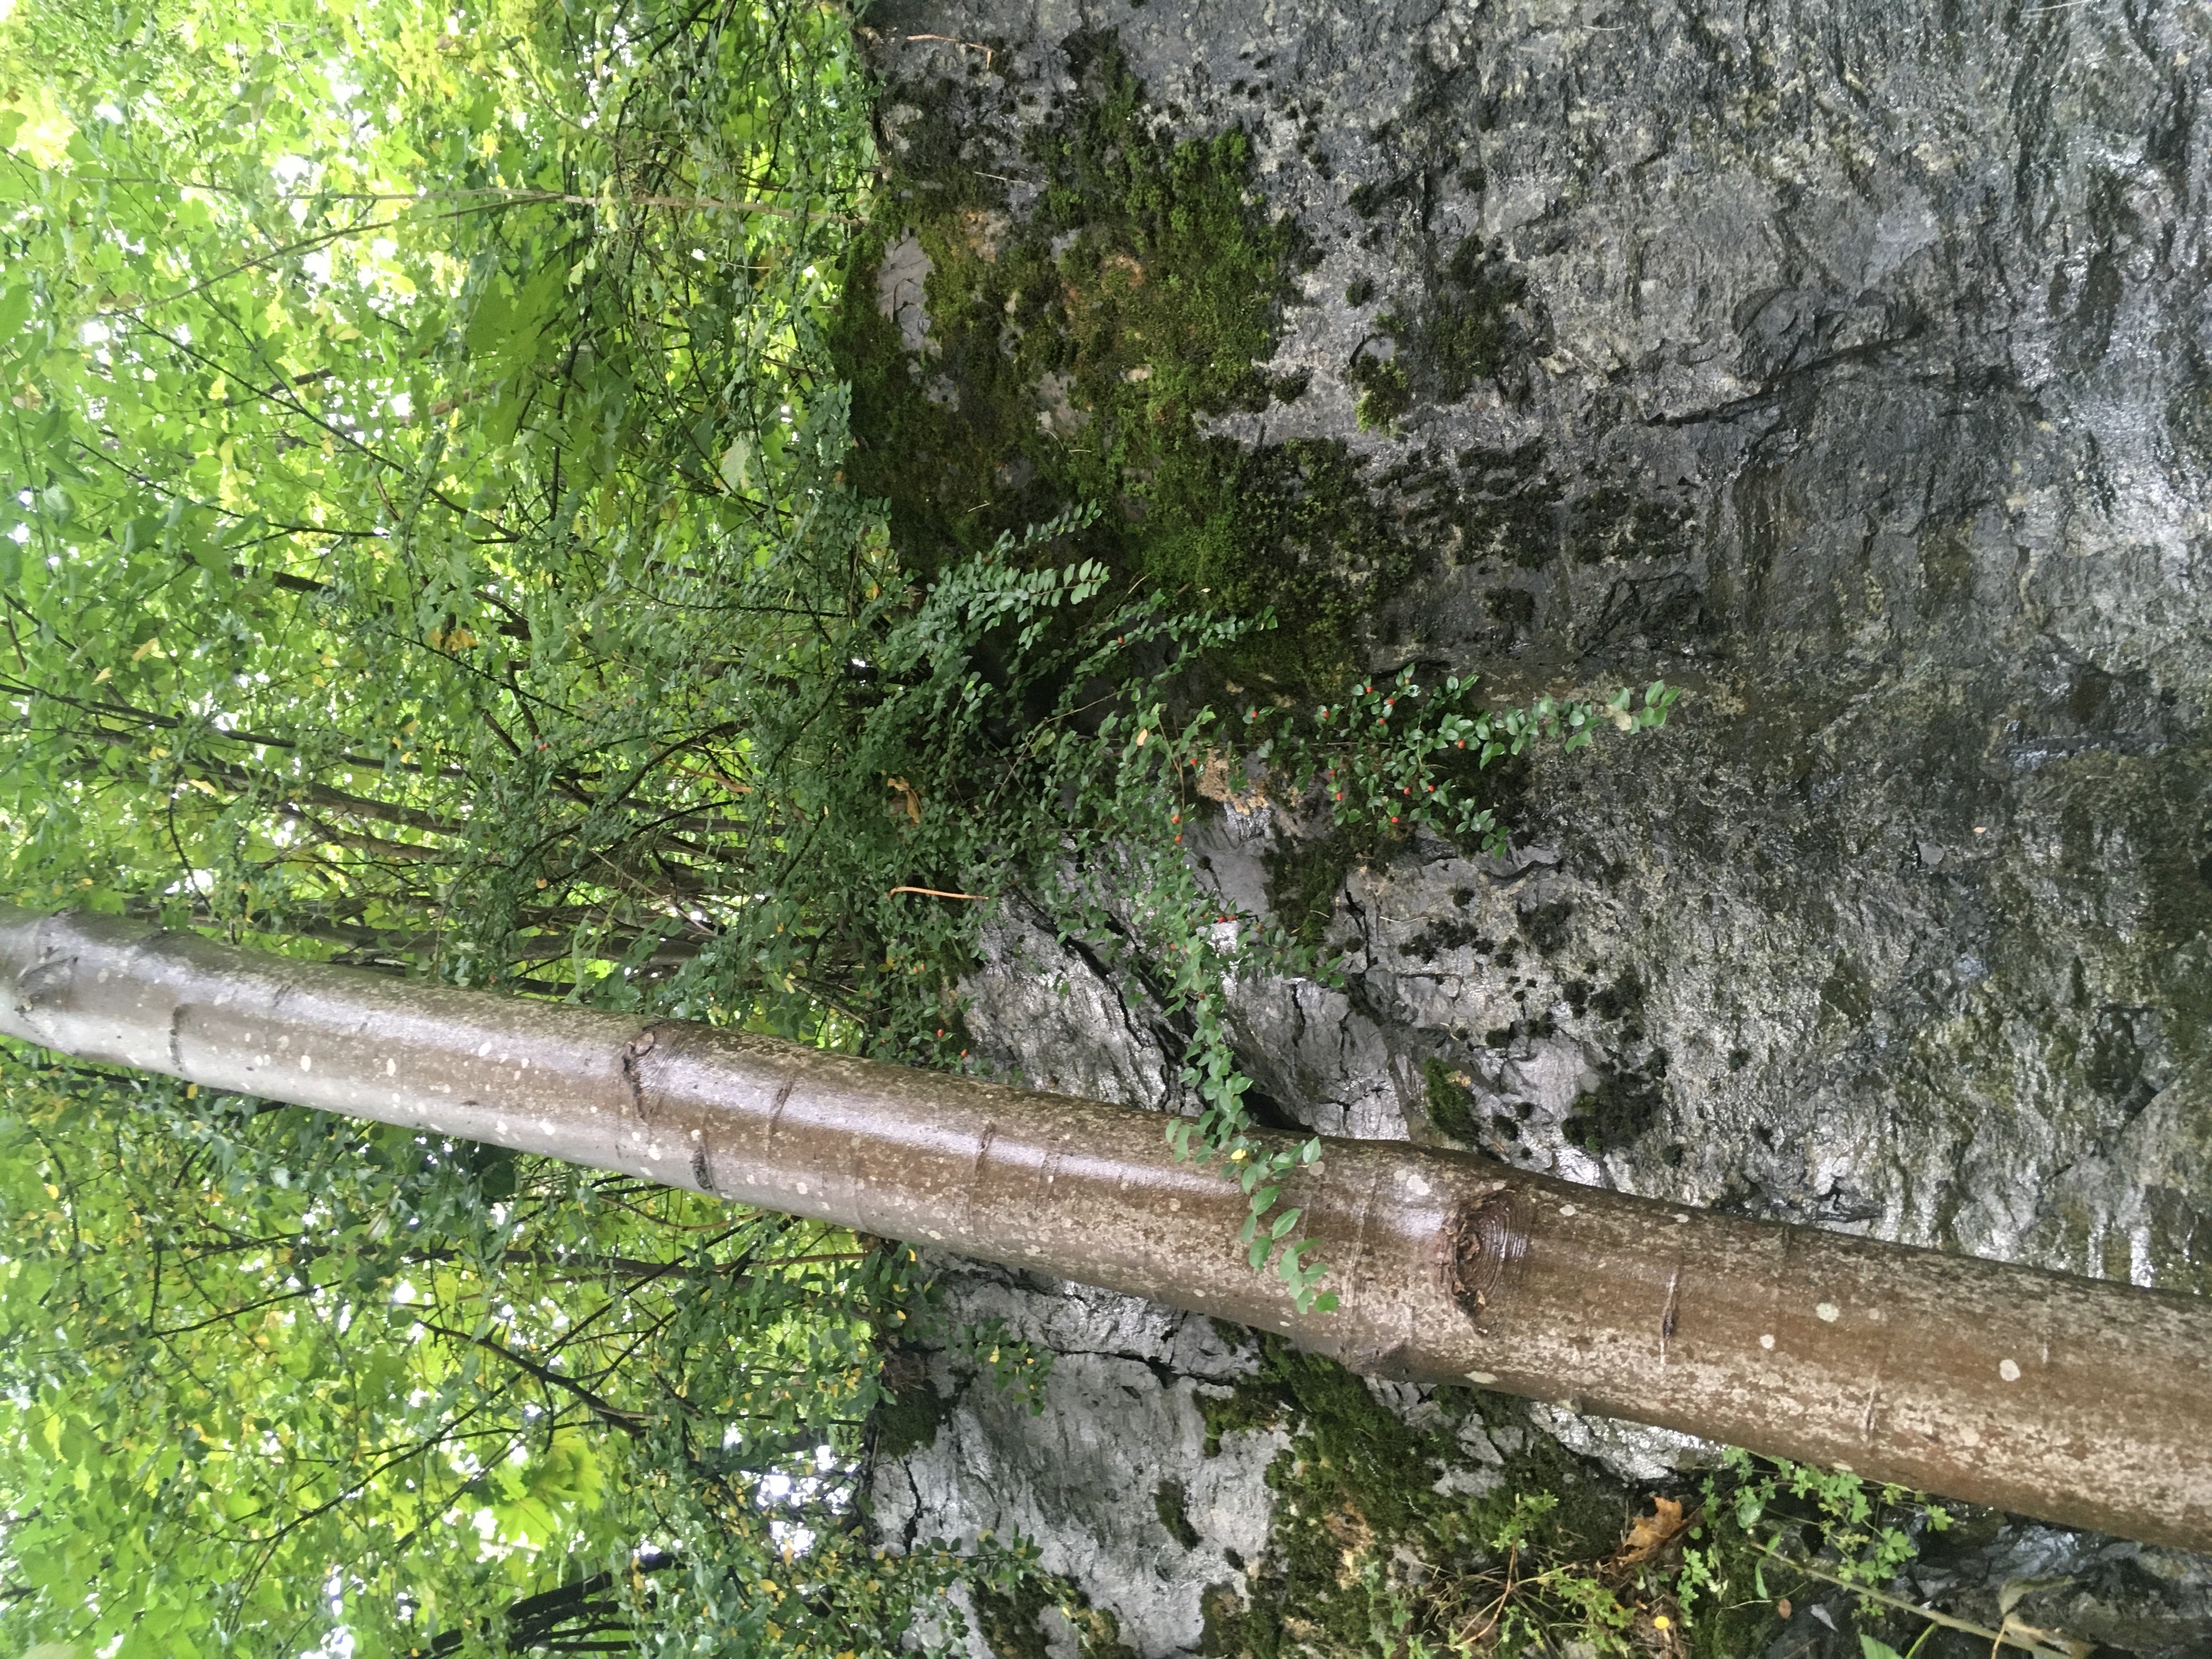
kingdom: Plantae
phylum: Tracheophyta
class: Magnoliopsida
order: Rosales
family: Rosaceae
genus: Cotoneaster
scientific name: Cotoneaster divaricatus
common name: sprikemispel
